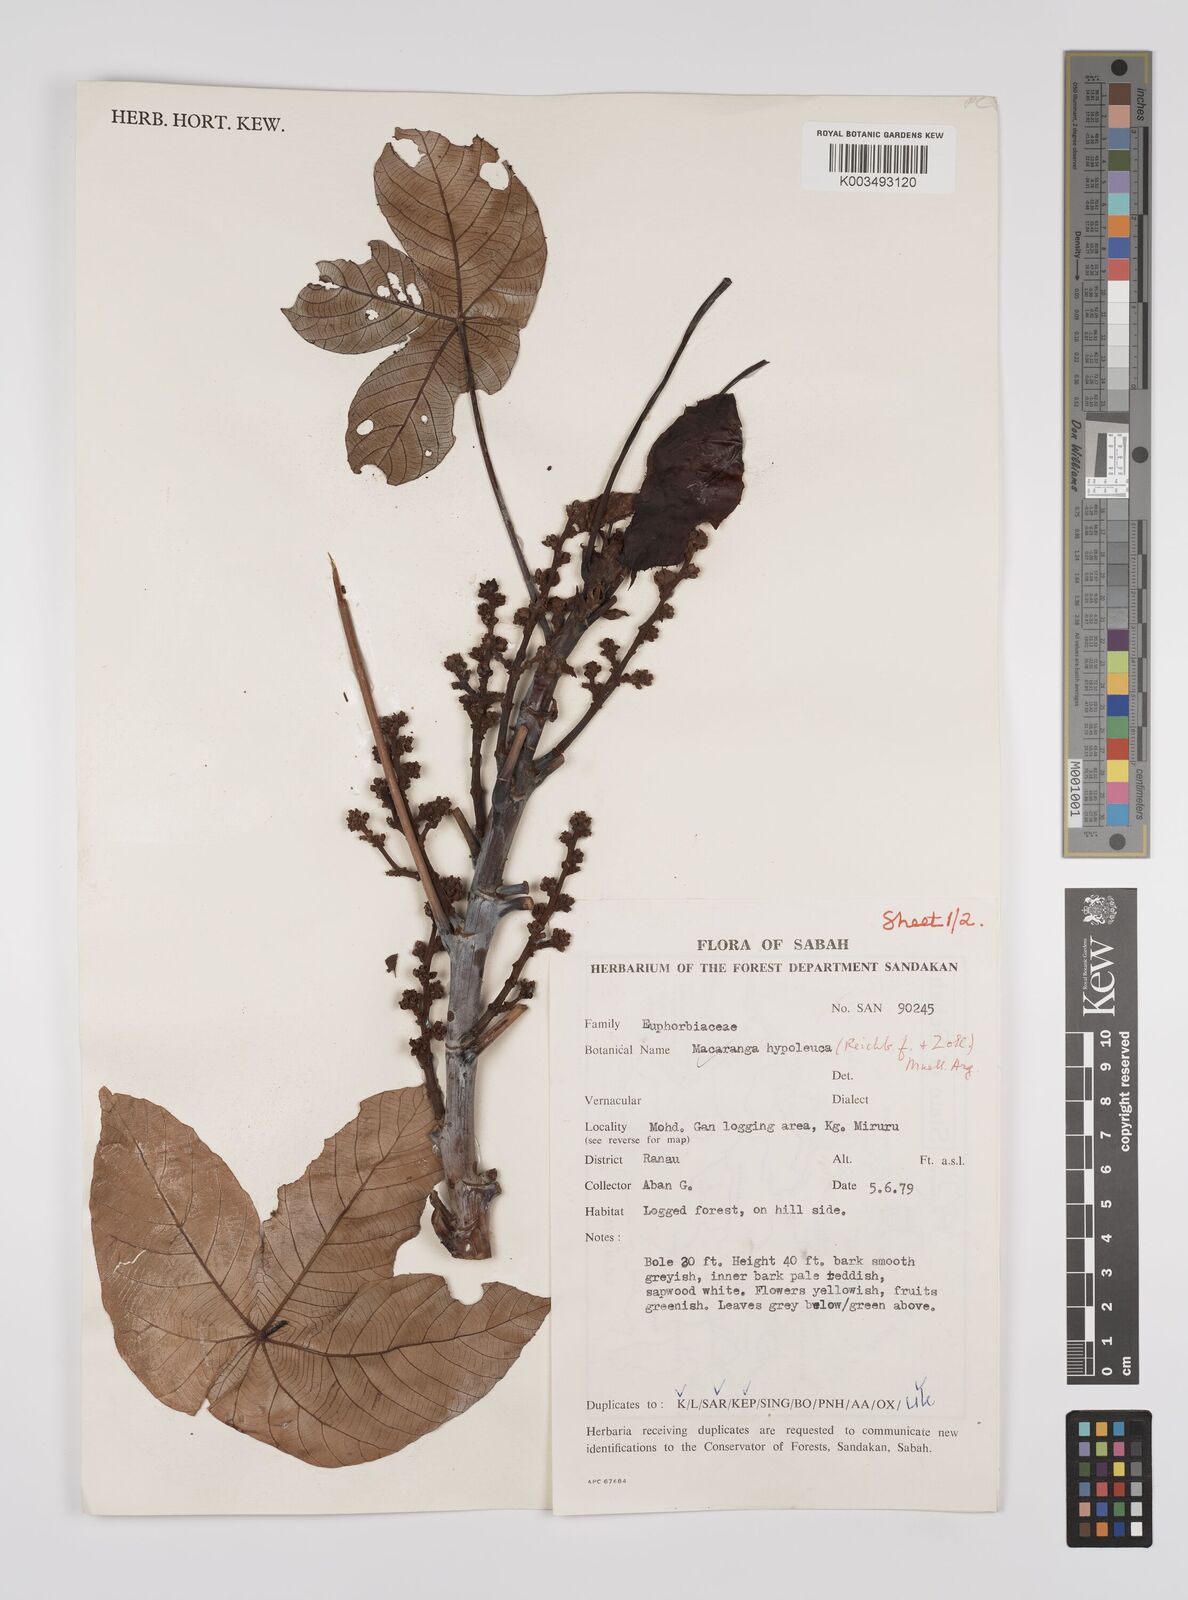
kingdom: Plantae
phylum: Tracheophyta
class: Magnoliopsida
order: Malpighiales
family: Euphorbiaceae
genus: Macaranga
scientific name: Macaranga hypoleuca
